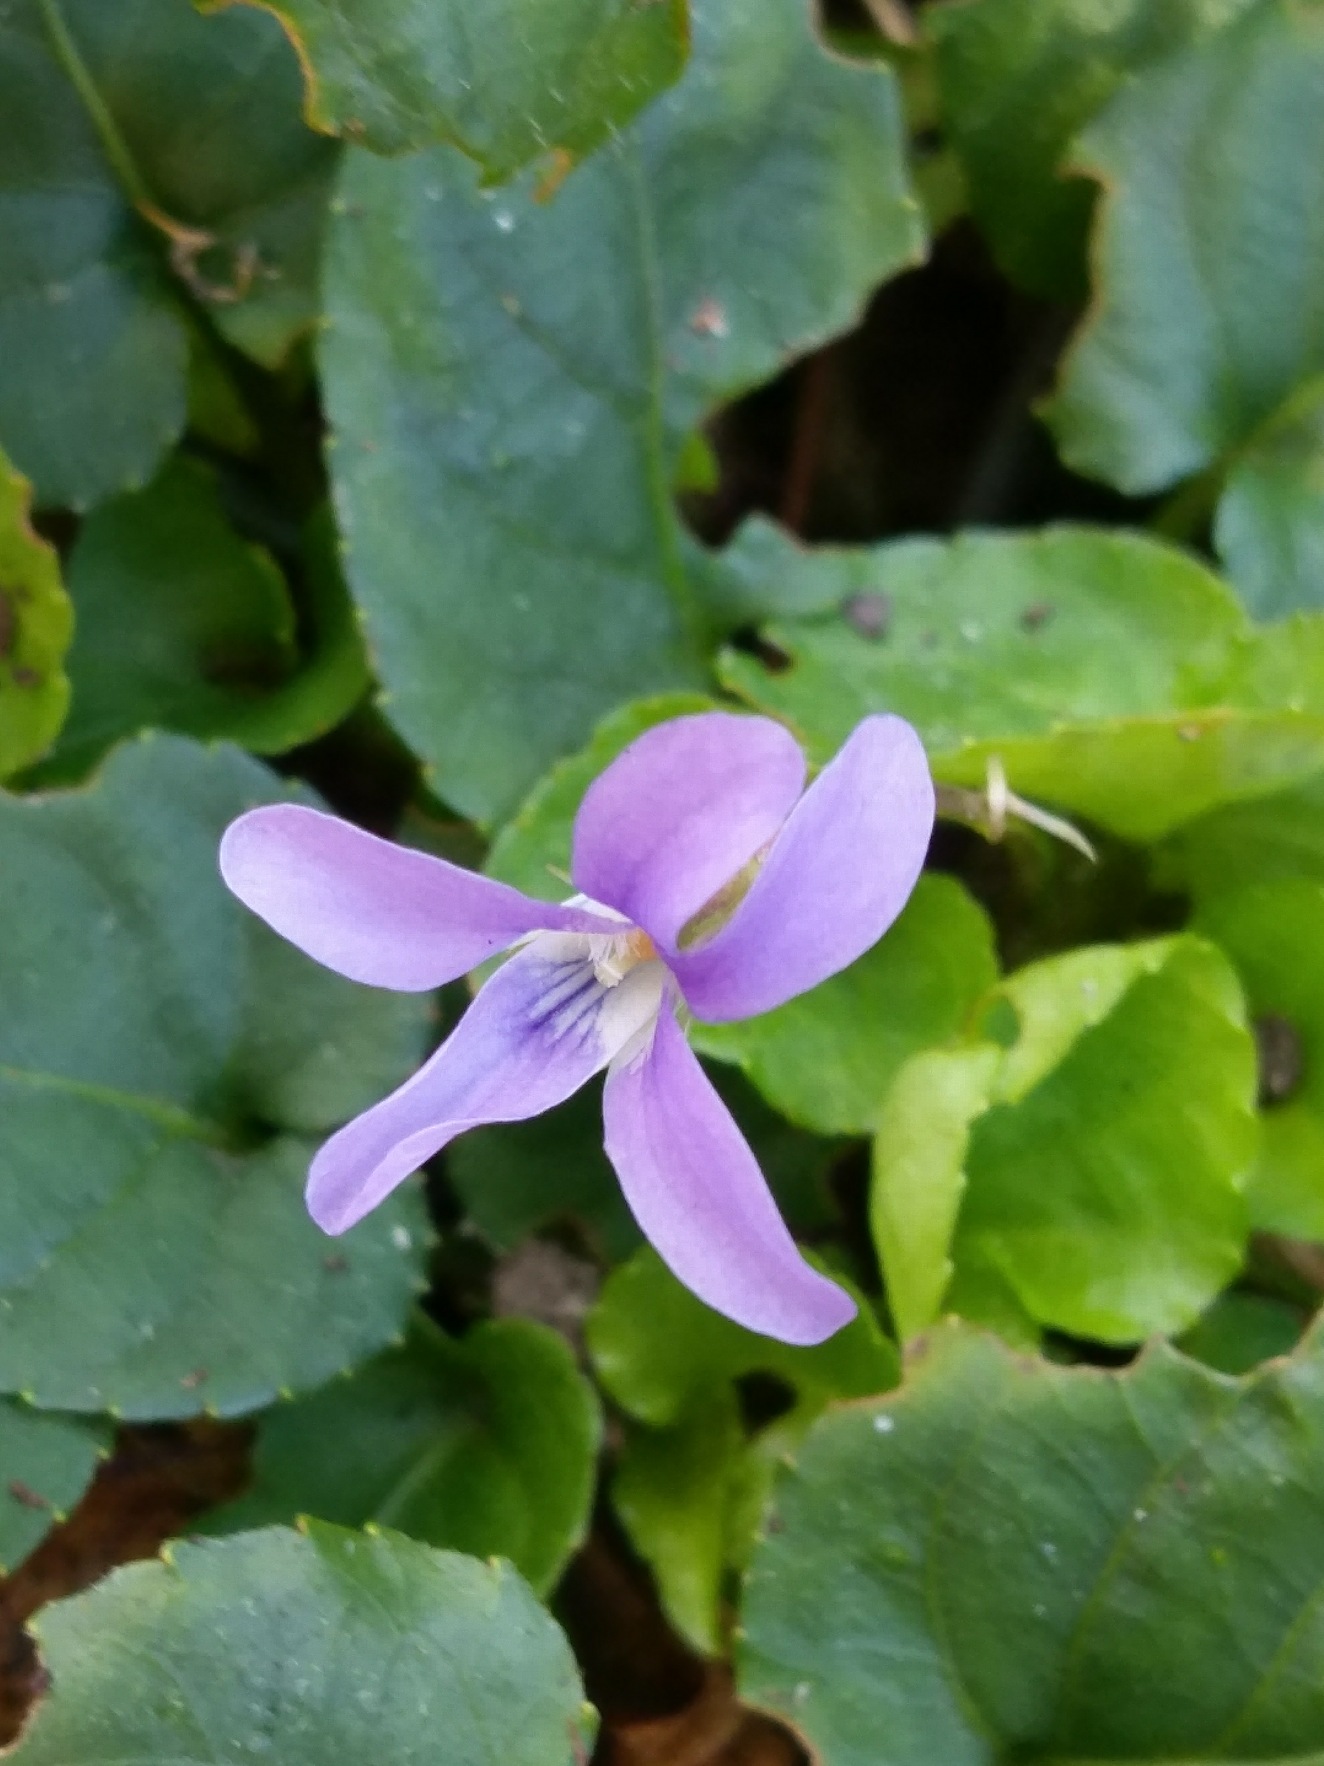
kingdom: Plantae
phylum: Tracheophyta
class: Magnoliopsida
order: Malpighiales
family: Violaceae
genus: Viola
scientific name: Viola reichenbachiana
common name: Skov-viol
